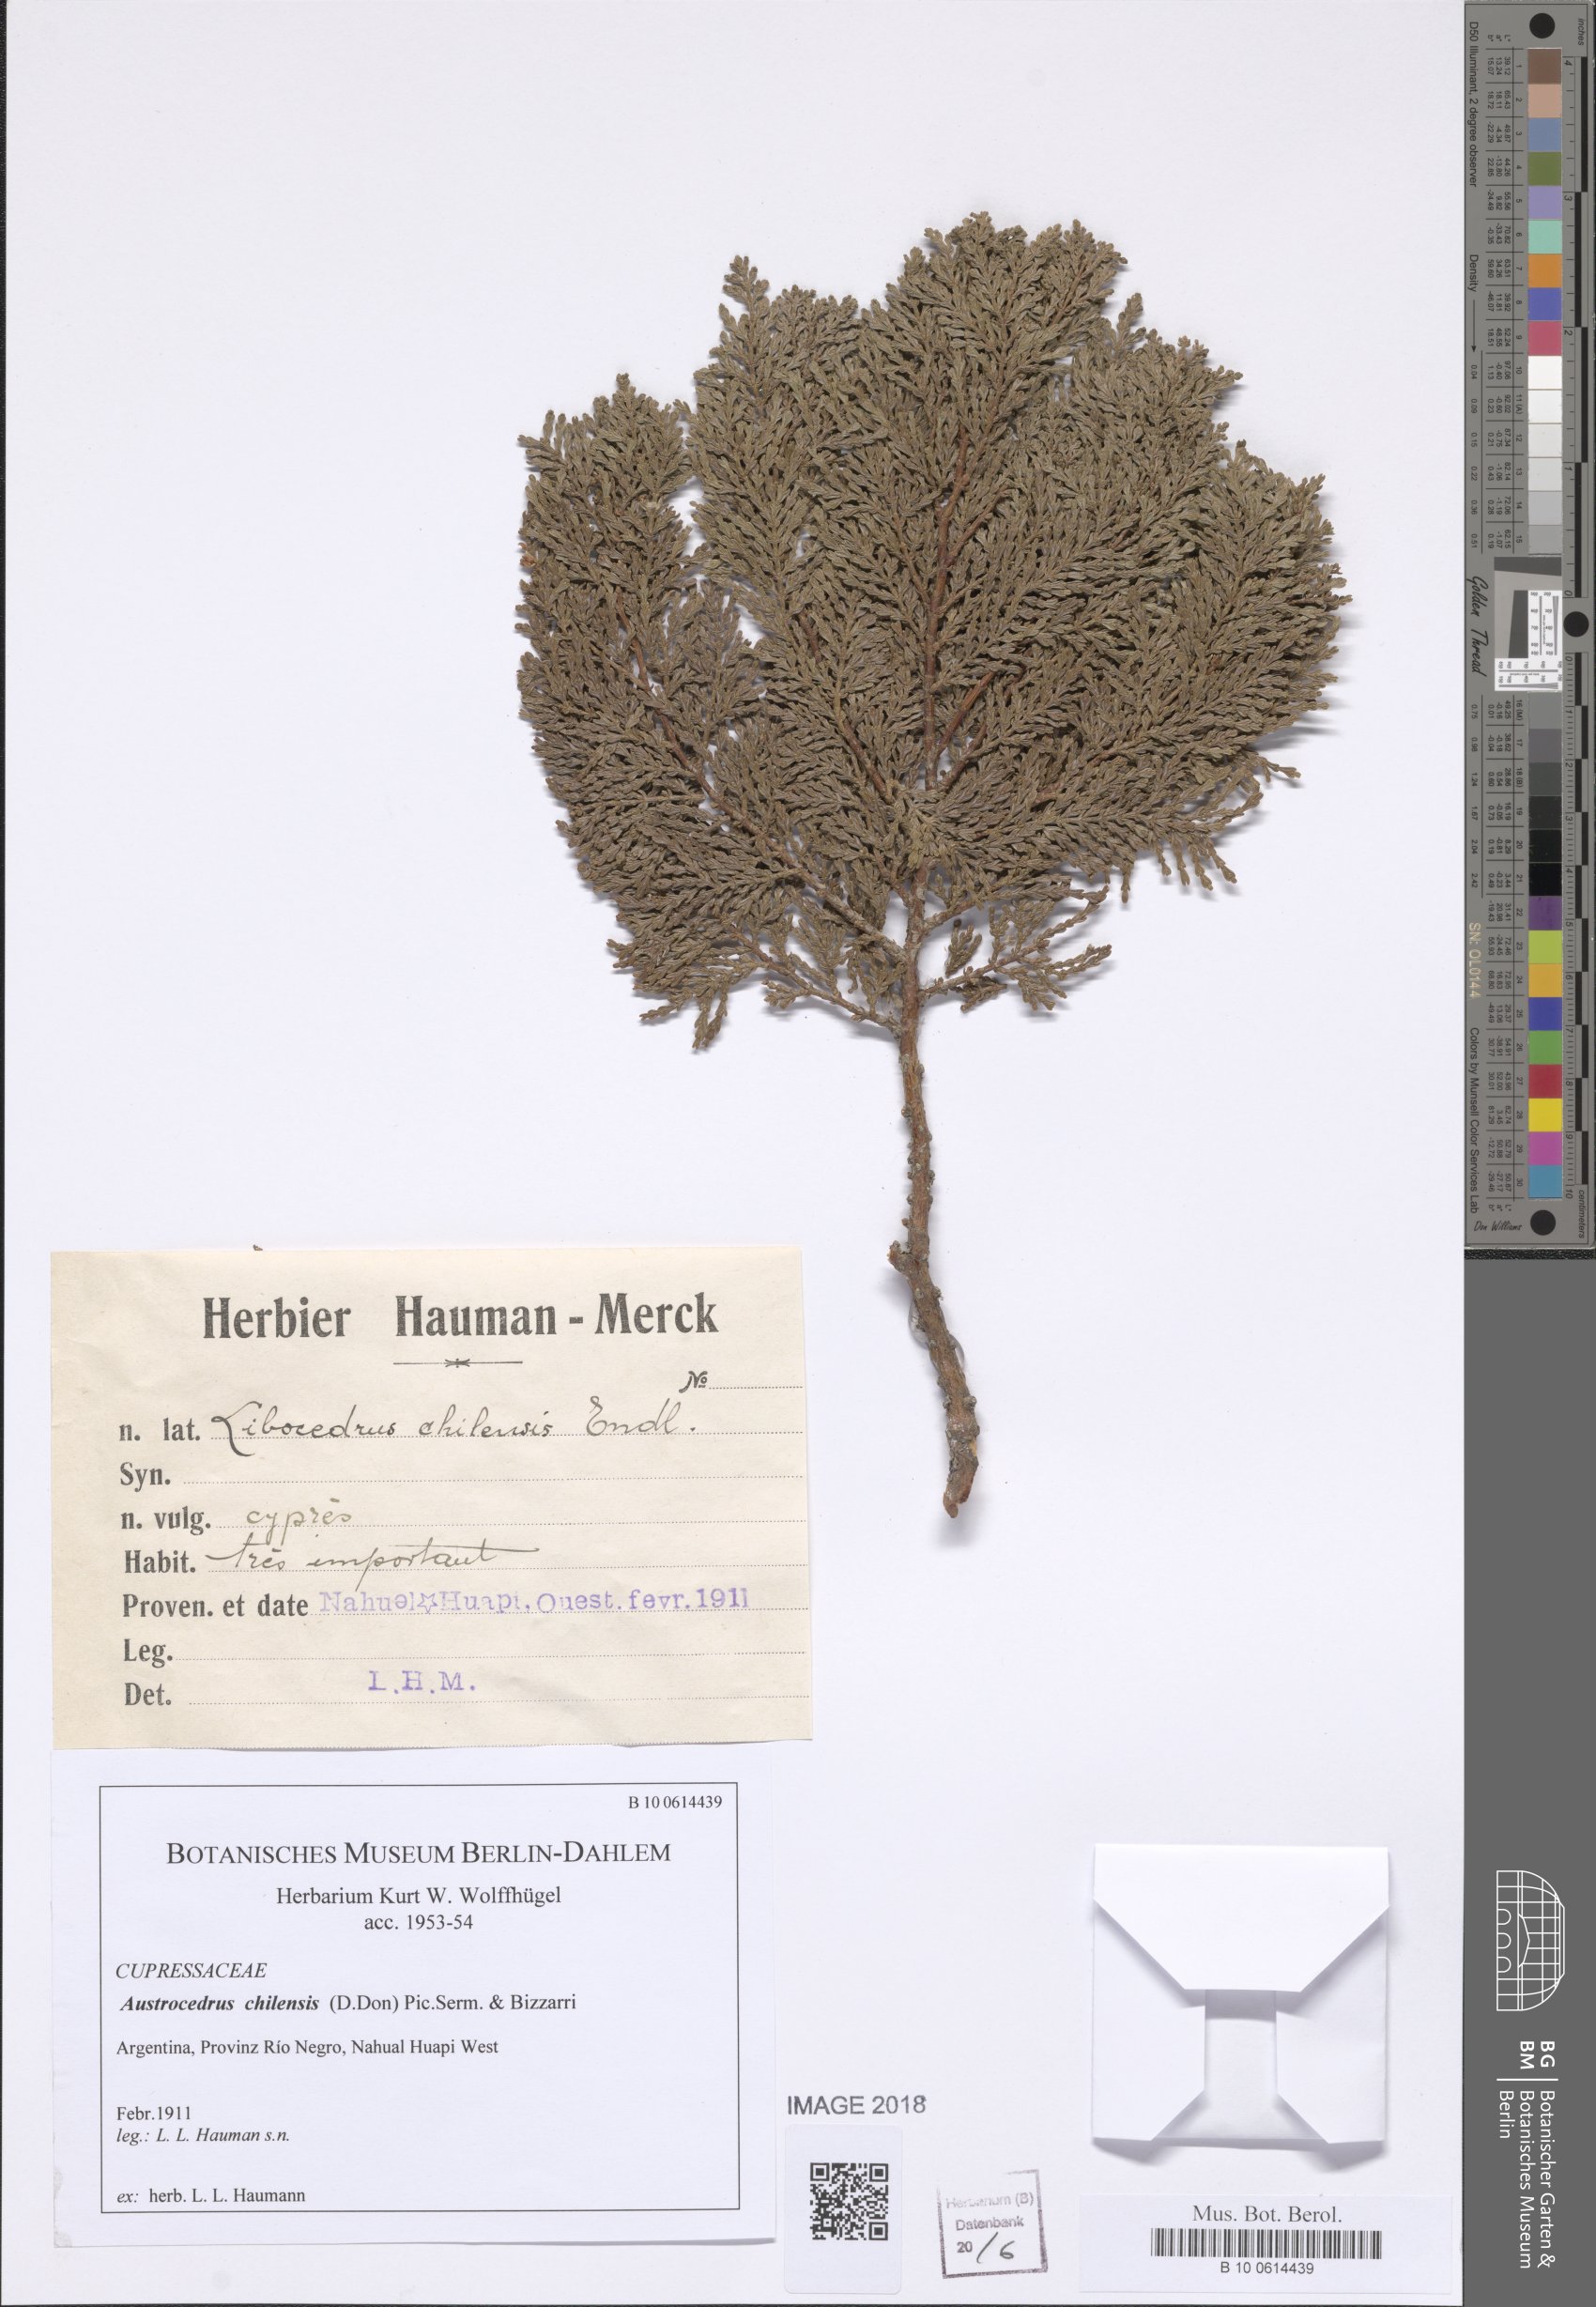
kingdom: Plantae
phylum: Tracheophyta
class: Pinopsida
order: Pinales
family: Cupressaceae
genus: Austrocedrus
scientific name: Austrocedrus chilensis
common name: Chilean incense-cedar
